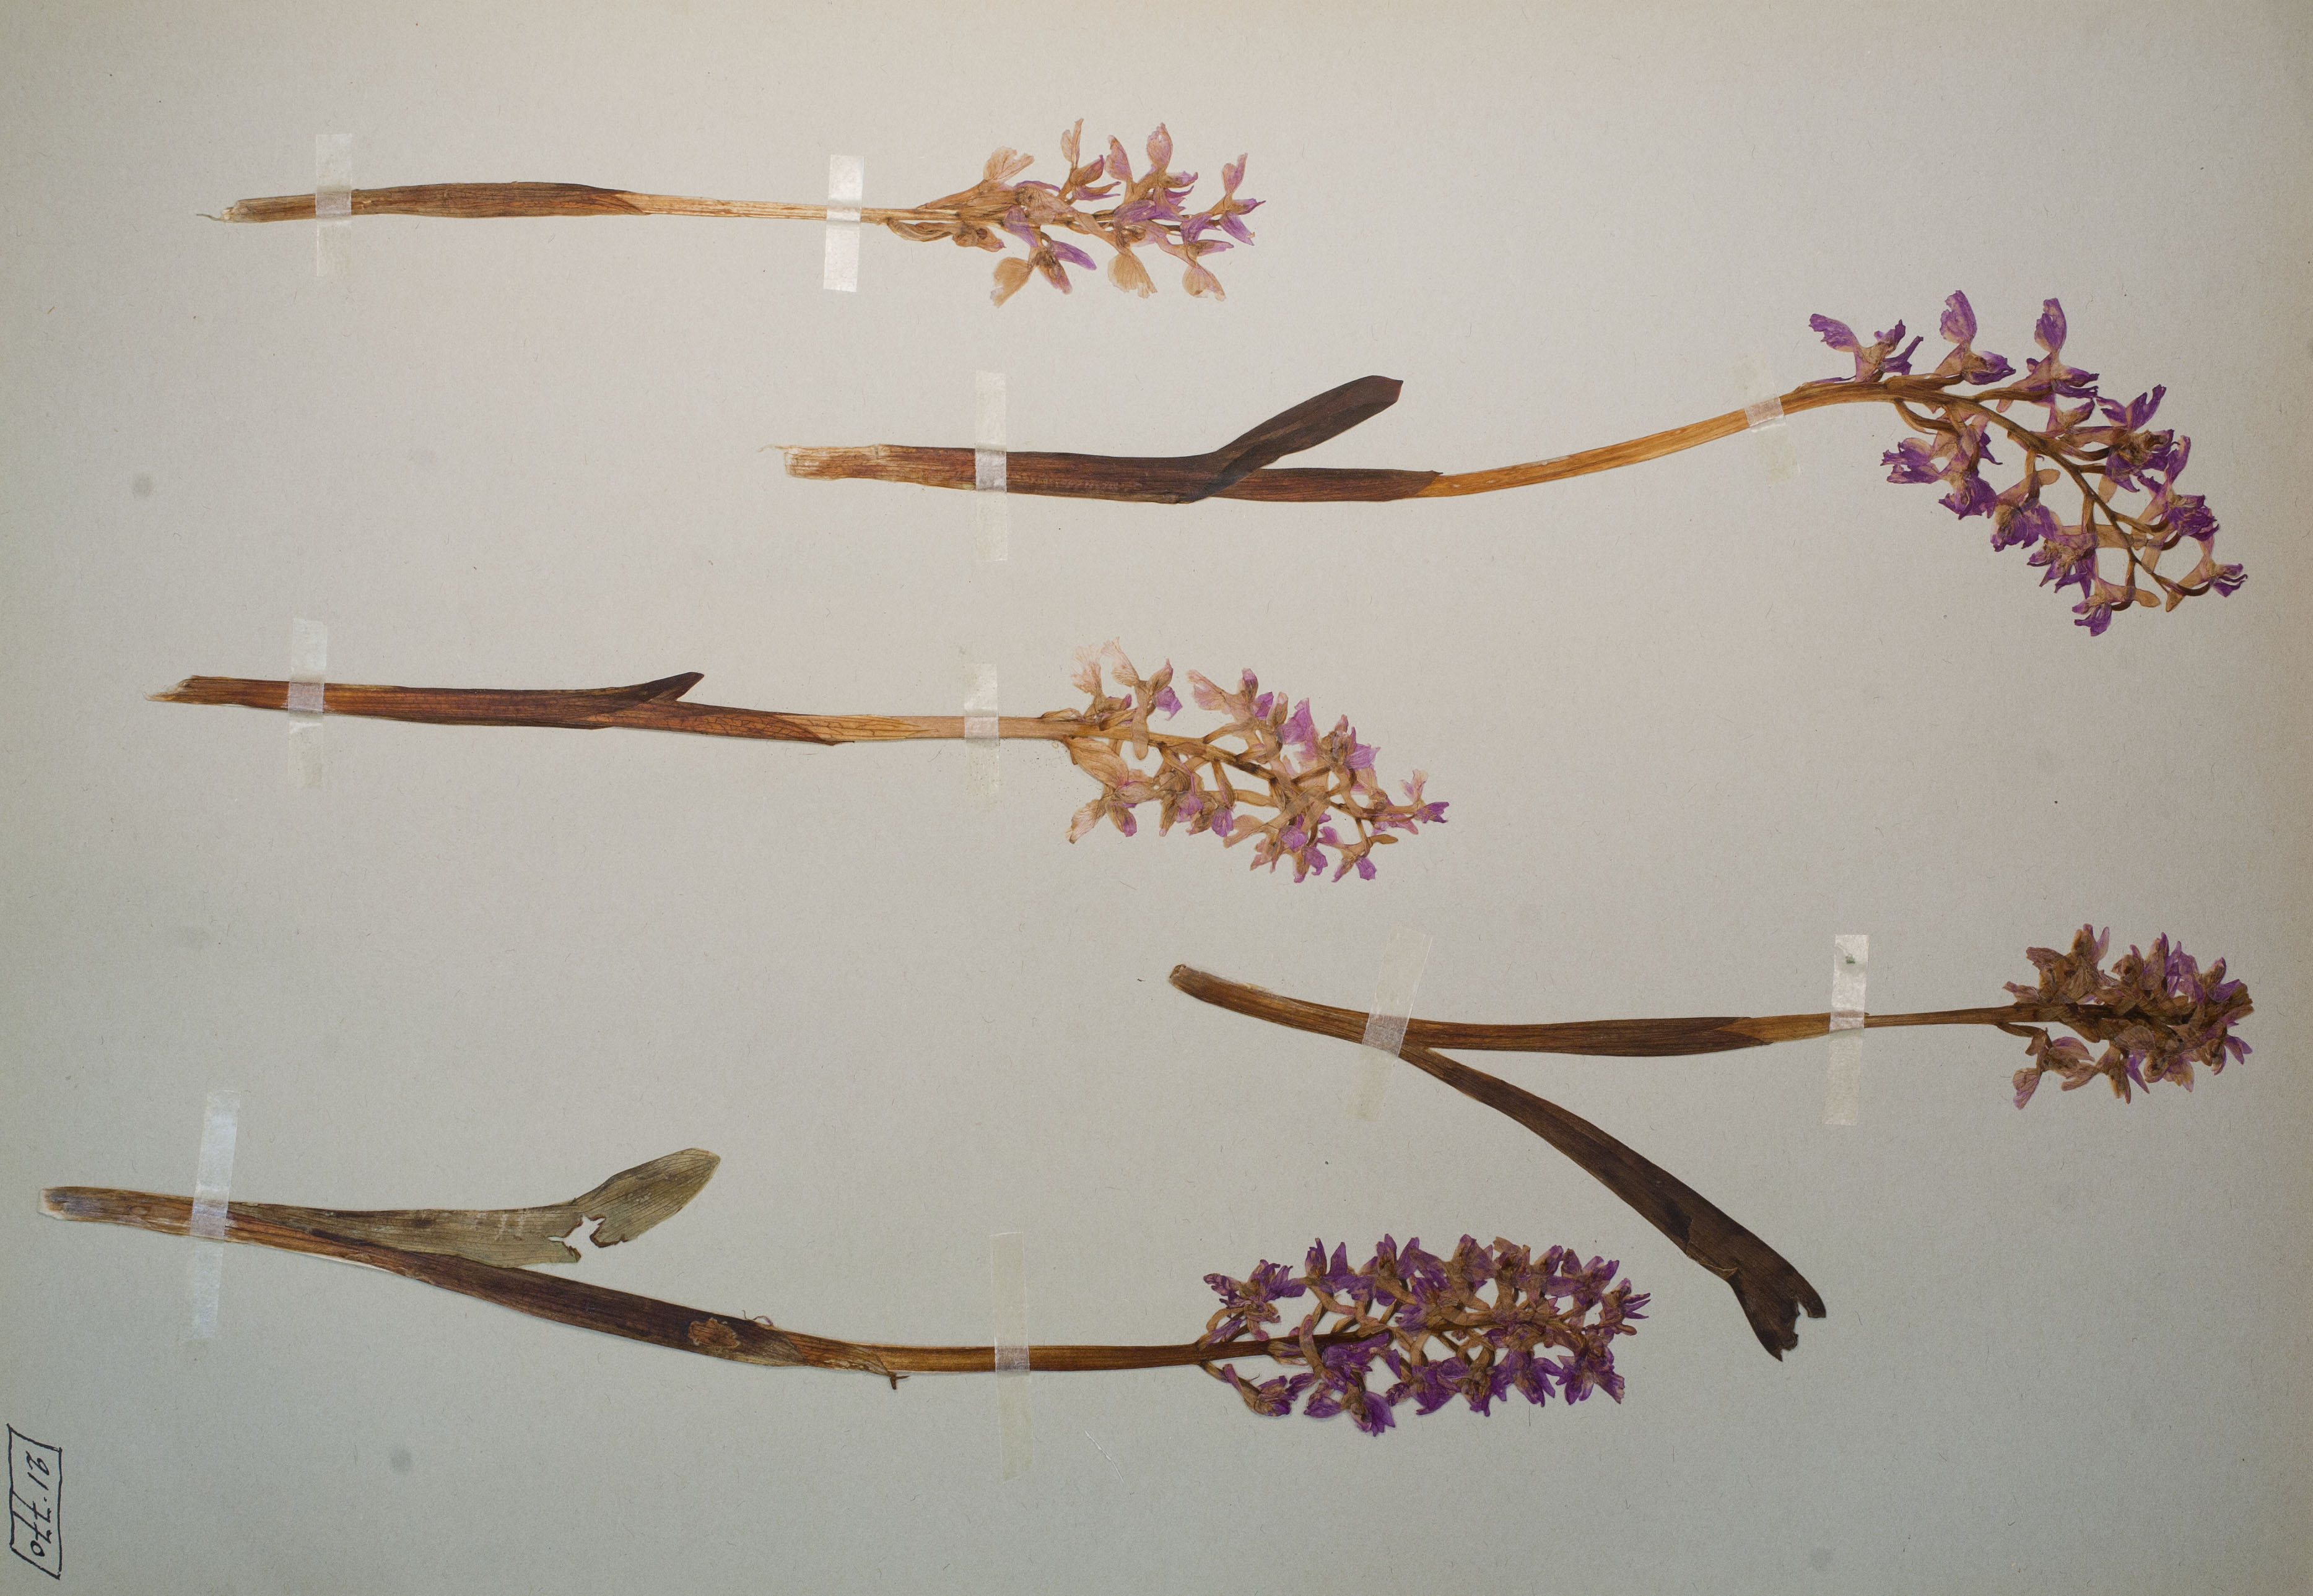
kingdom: Plantae
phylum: Tracheophyta
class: Liliopsida
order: Asparagales
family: Orchidaceae
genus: Orchis
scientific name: Orchis mascula
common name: Early-purple orchid
